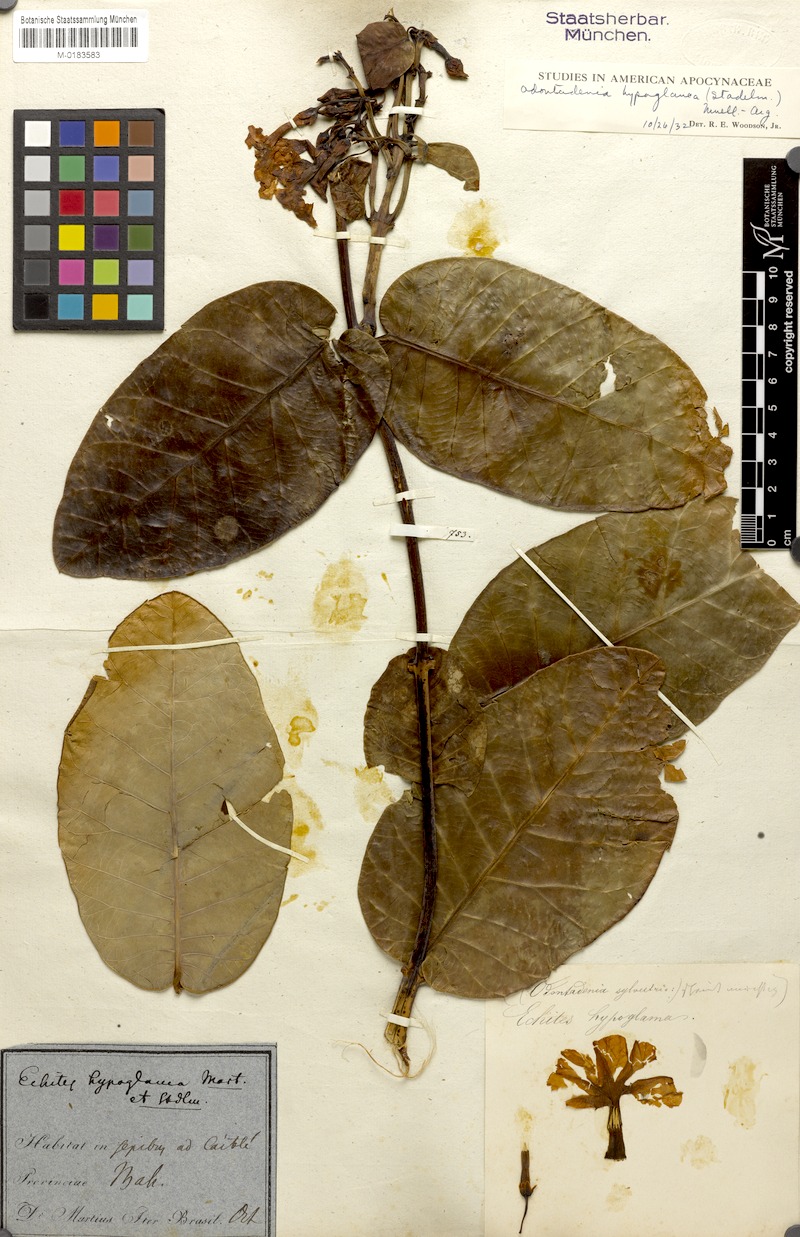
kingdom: Plantae
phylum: Tracheophyta
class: Magnoliopsida
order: Gentianales
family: Apocynaceae
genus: Odontadenia
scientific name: Odontadenia hypoglauca
